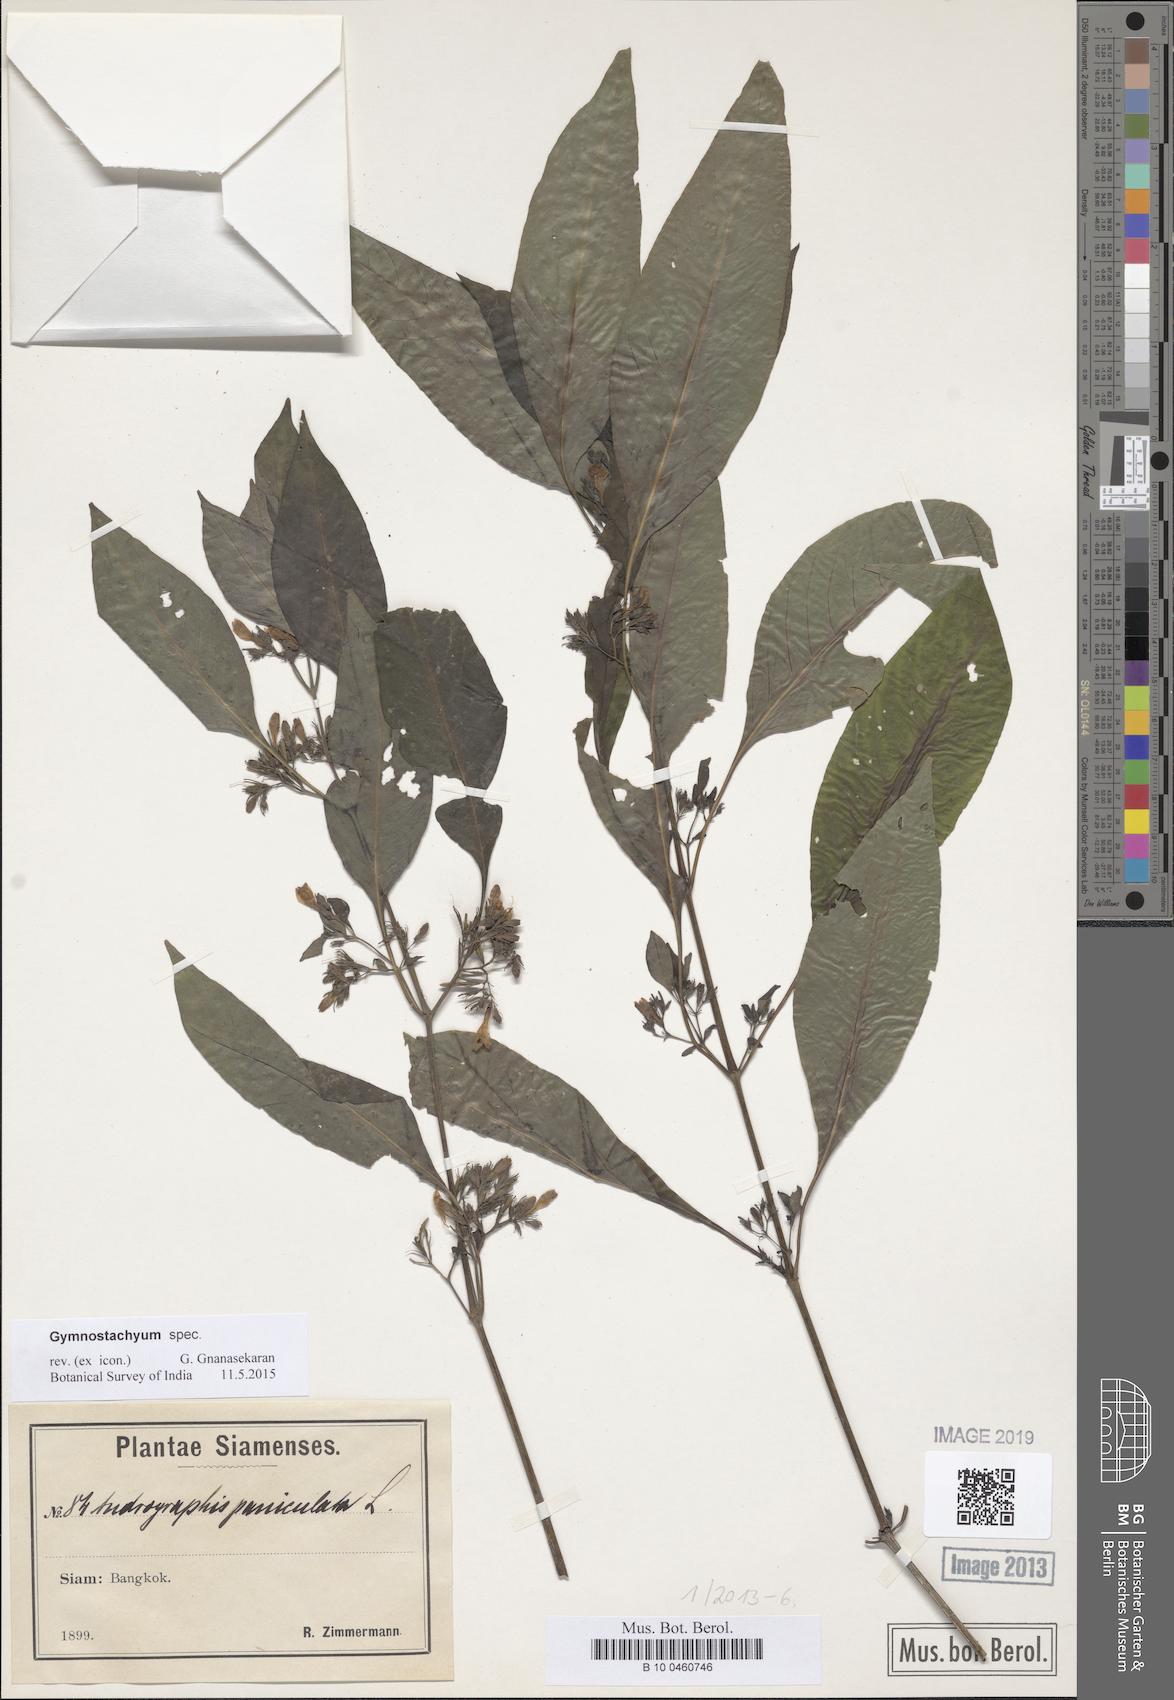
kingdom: Plantae
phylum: Tracheophyta
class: Magnoliopsida
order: Lamiales
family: Acanthaceae
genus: Gymnostachyum
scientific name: Gymnostachyum
